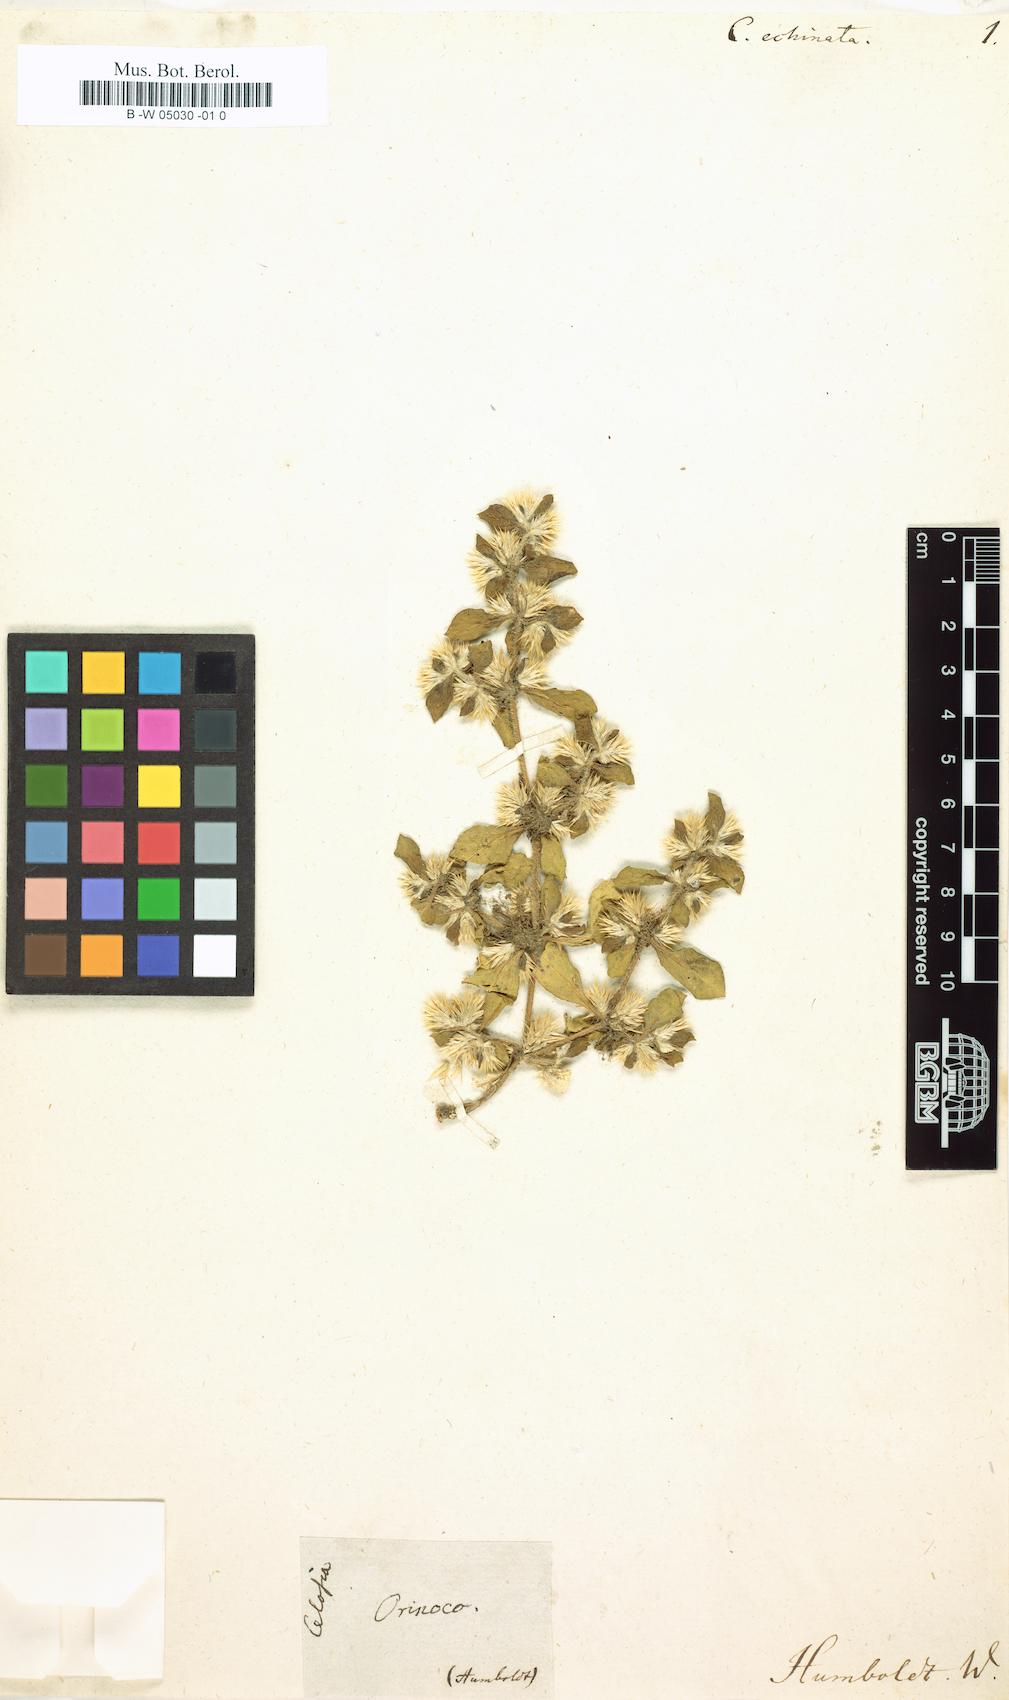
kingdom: Plantae
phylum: Tracheophyta
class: Magnoliopsida
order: Caryophyllales
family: Amaranthaceae
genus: Alternanthera
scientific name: Alternanthera pungens
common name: Khakiweed
